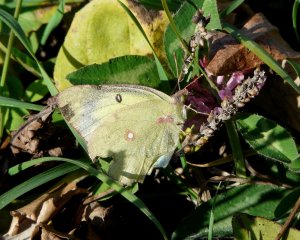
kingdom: Animalia
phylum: Arthropoda
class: Insecta
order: Lepidoptera
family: Pieridae
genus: Colias
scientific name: Colias philodice
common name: Clouded Sulphur
